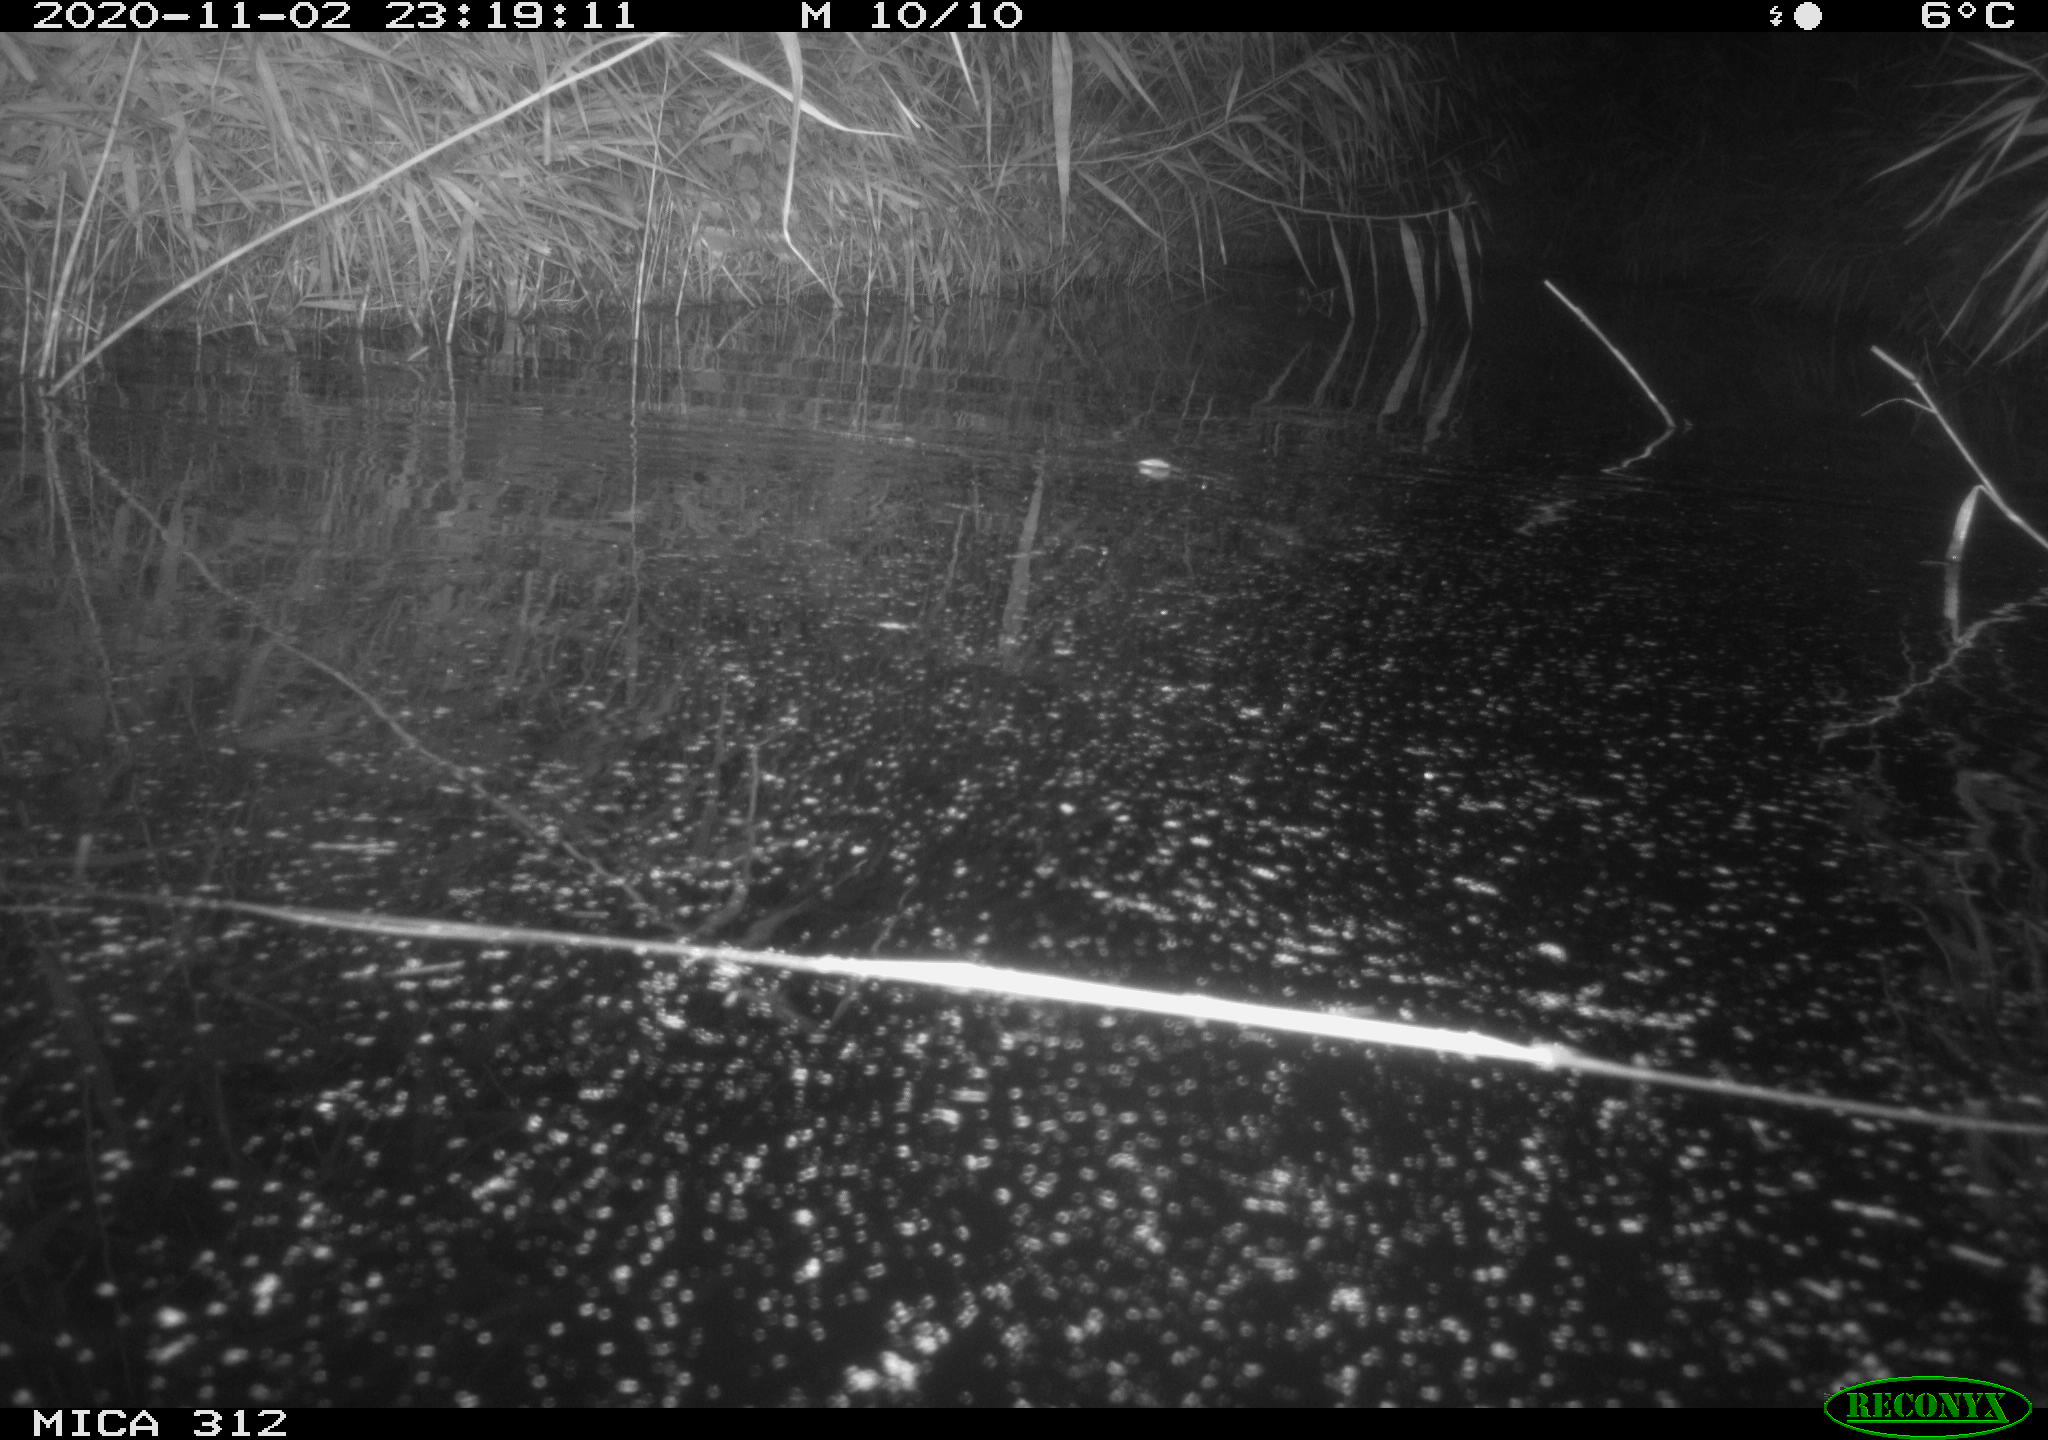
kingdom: Animalia
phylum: Chordata
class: Mammalia
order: Rodentia
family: Muridae
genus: Rattus
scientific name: Rattus norvegicus
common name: Brown rat
